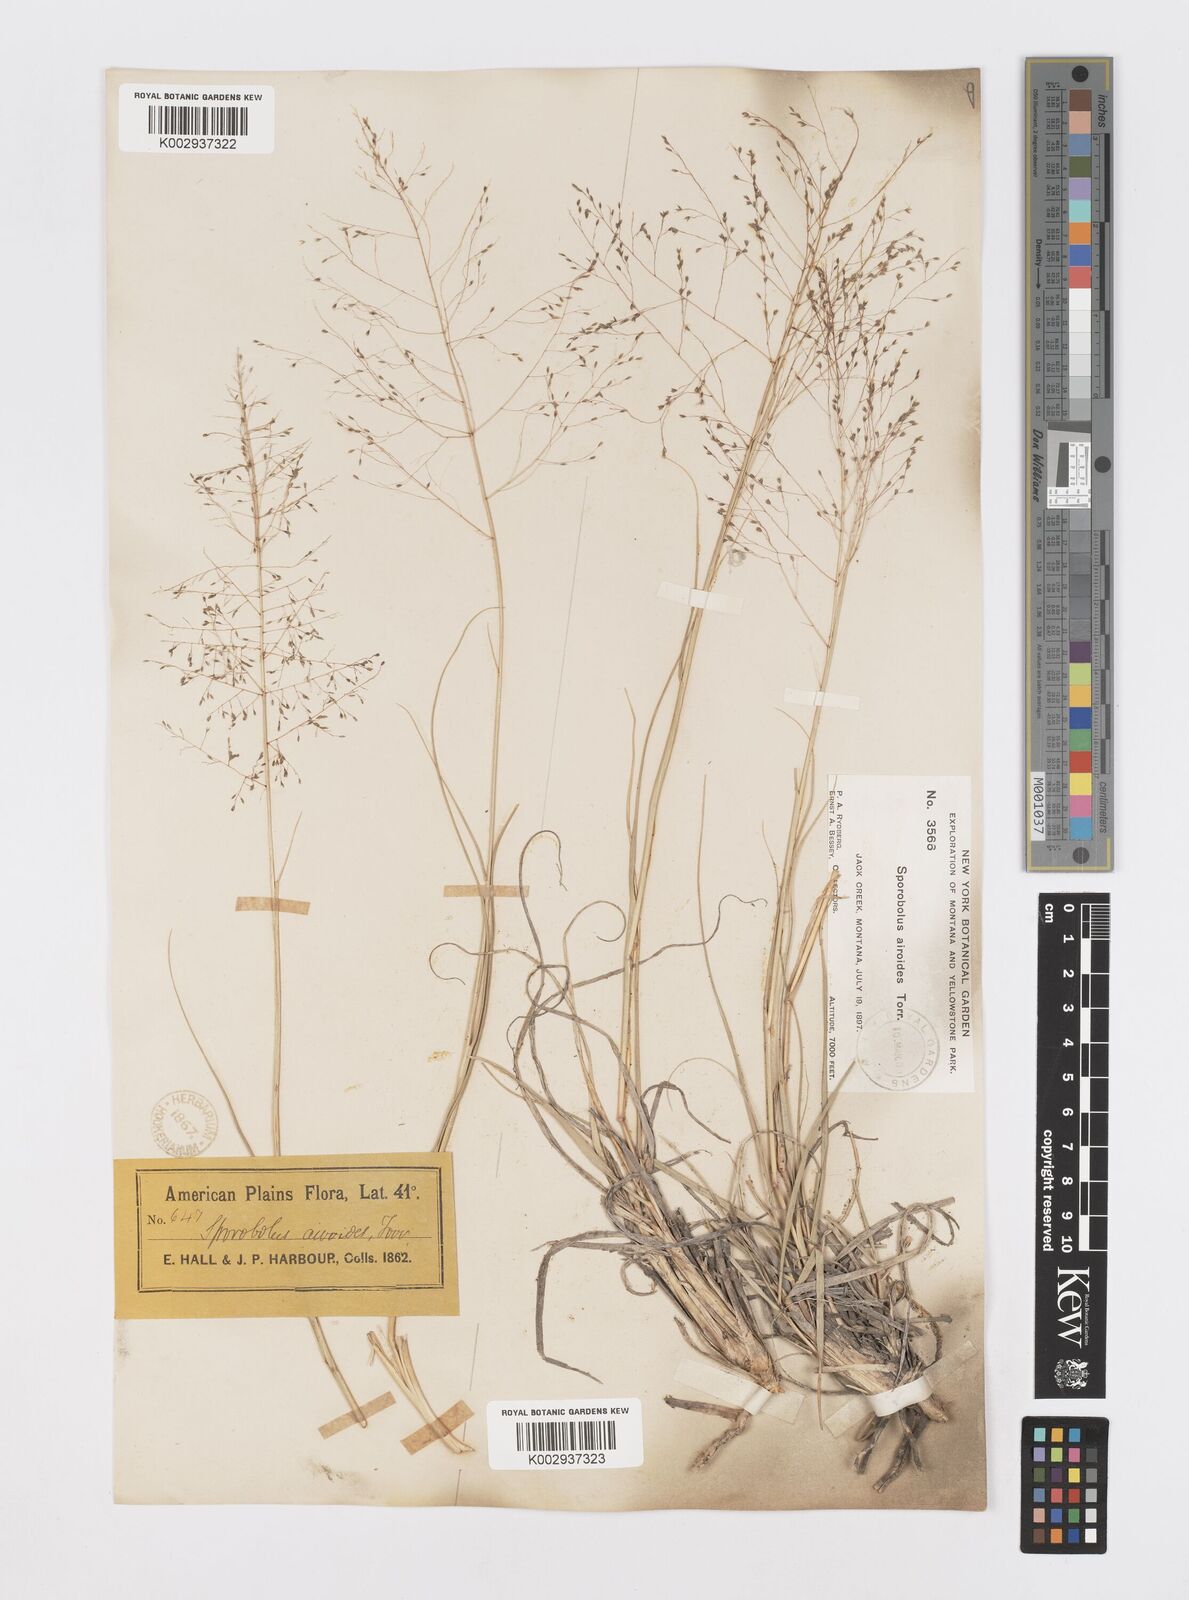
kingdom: Plantae
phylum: Tracheophyta
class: Liliopsida
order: Poales
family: Poaceae
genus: Sporobolus
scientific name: Sporobolus airoides
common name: Alkali sacaton
